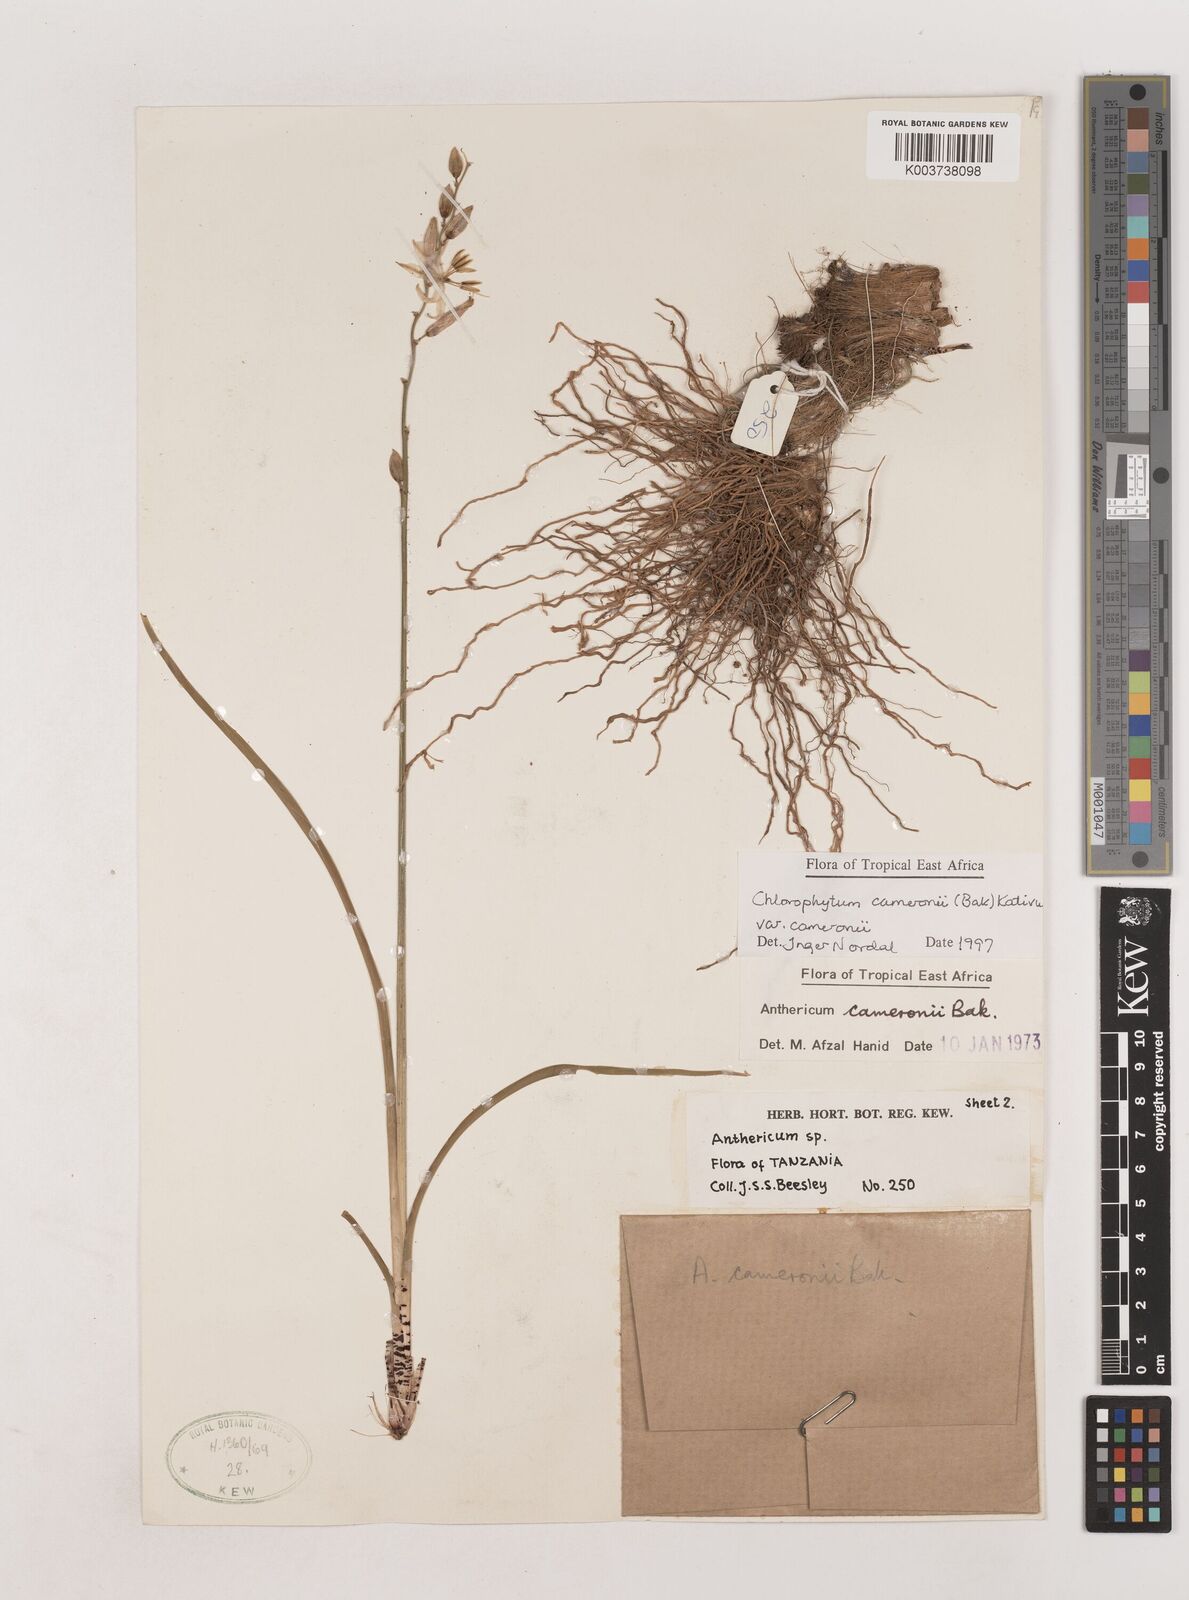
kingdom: Plantae
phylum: Tracheophyta
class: Liliopsida
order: Asparagales
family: Asparagaceae
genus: Chlorophytum
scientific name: Chlorophytum cameronii
